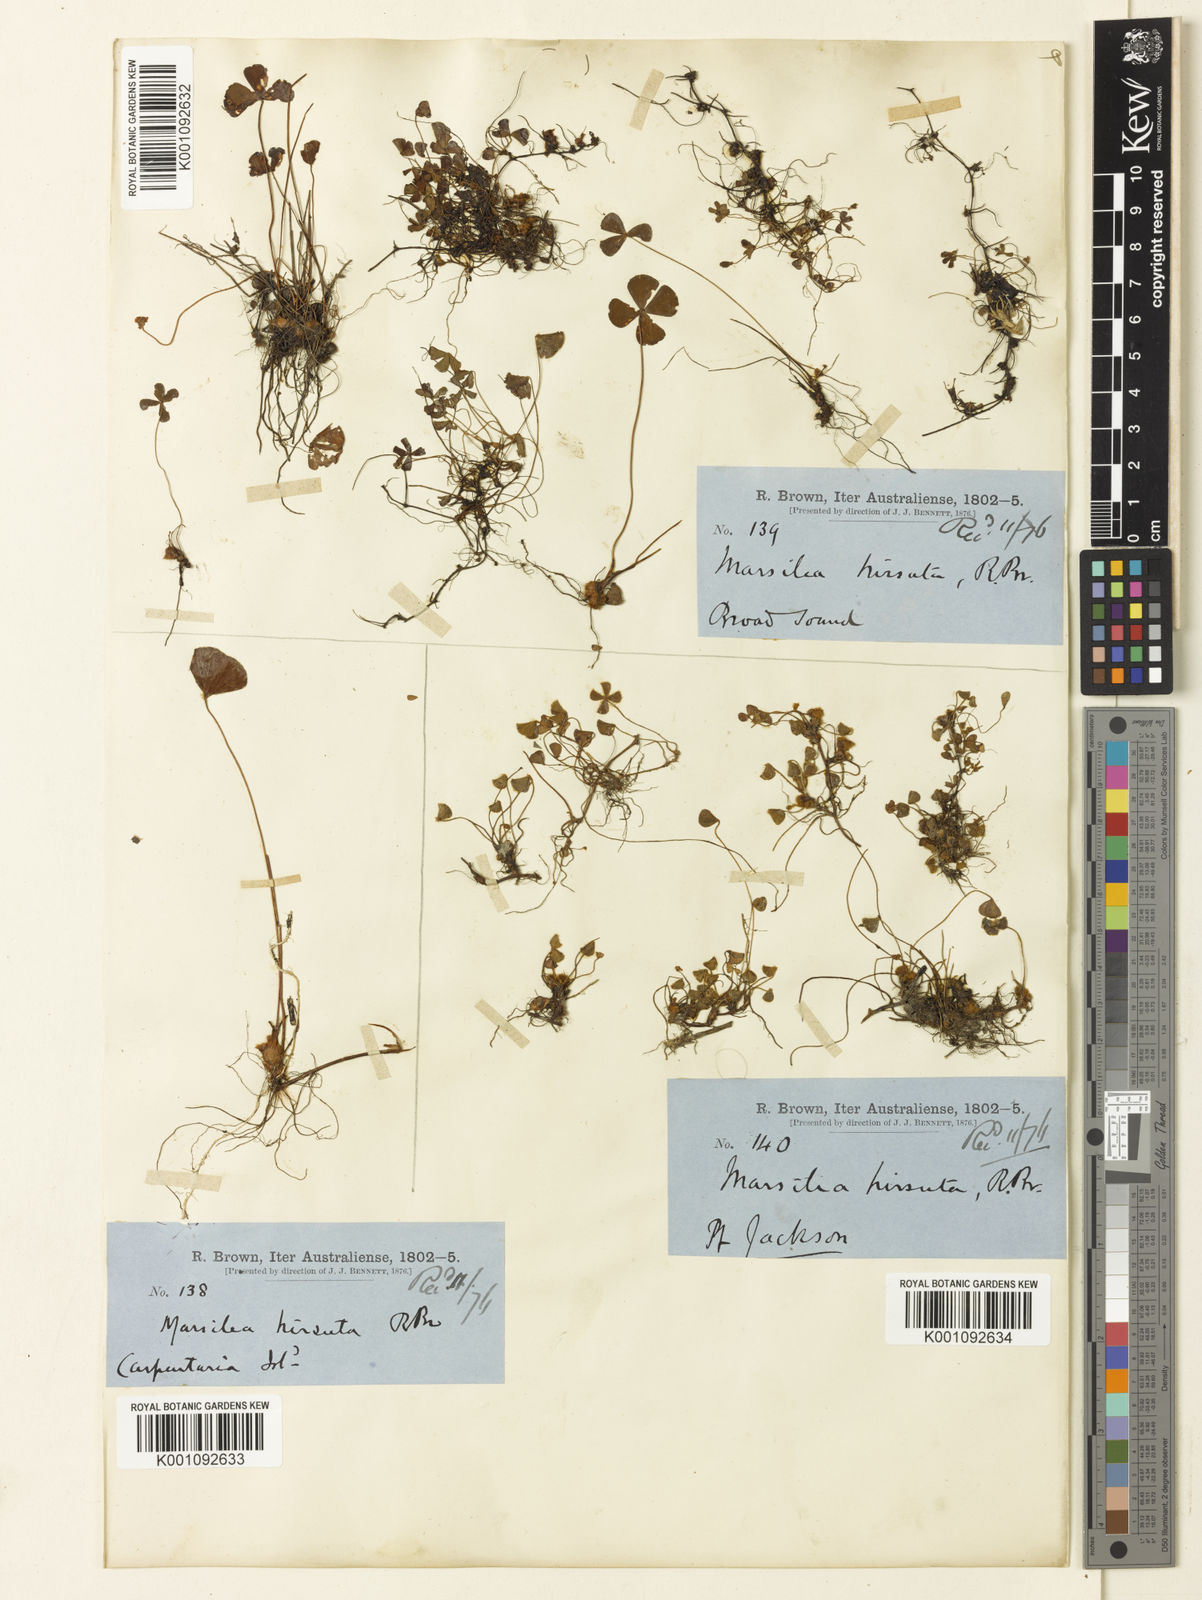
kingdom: Plantae
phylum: Tracheophyta
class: Polypodiopsida
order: Salviniales
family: Marsileaceae
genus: Marsilea
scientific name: Marsilea hirsuta
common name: Rough waterclover
